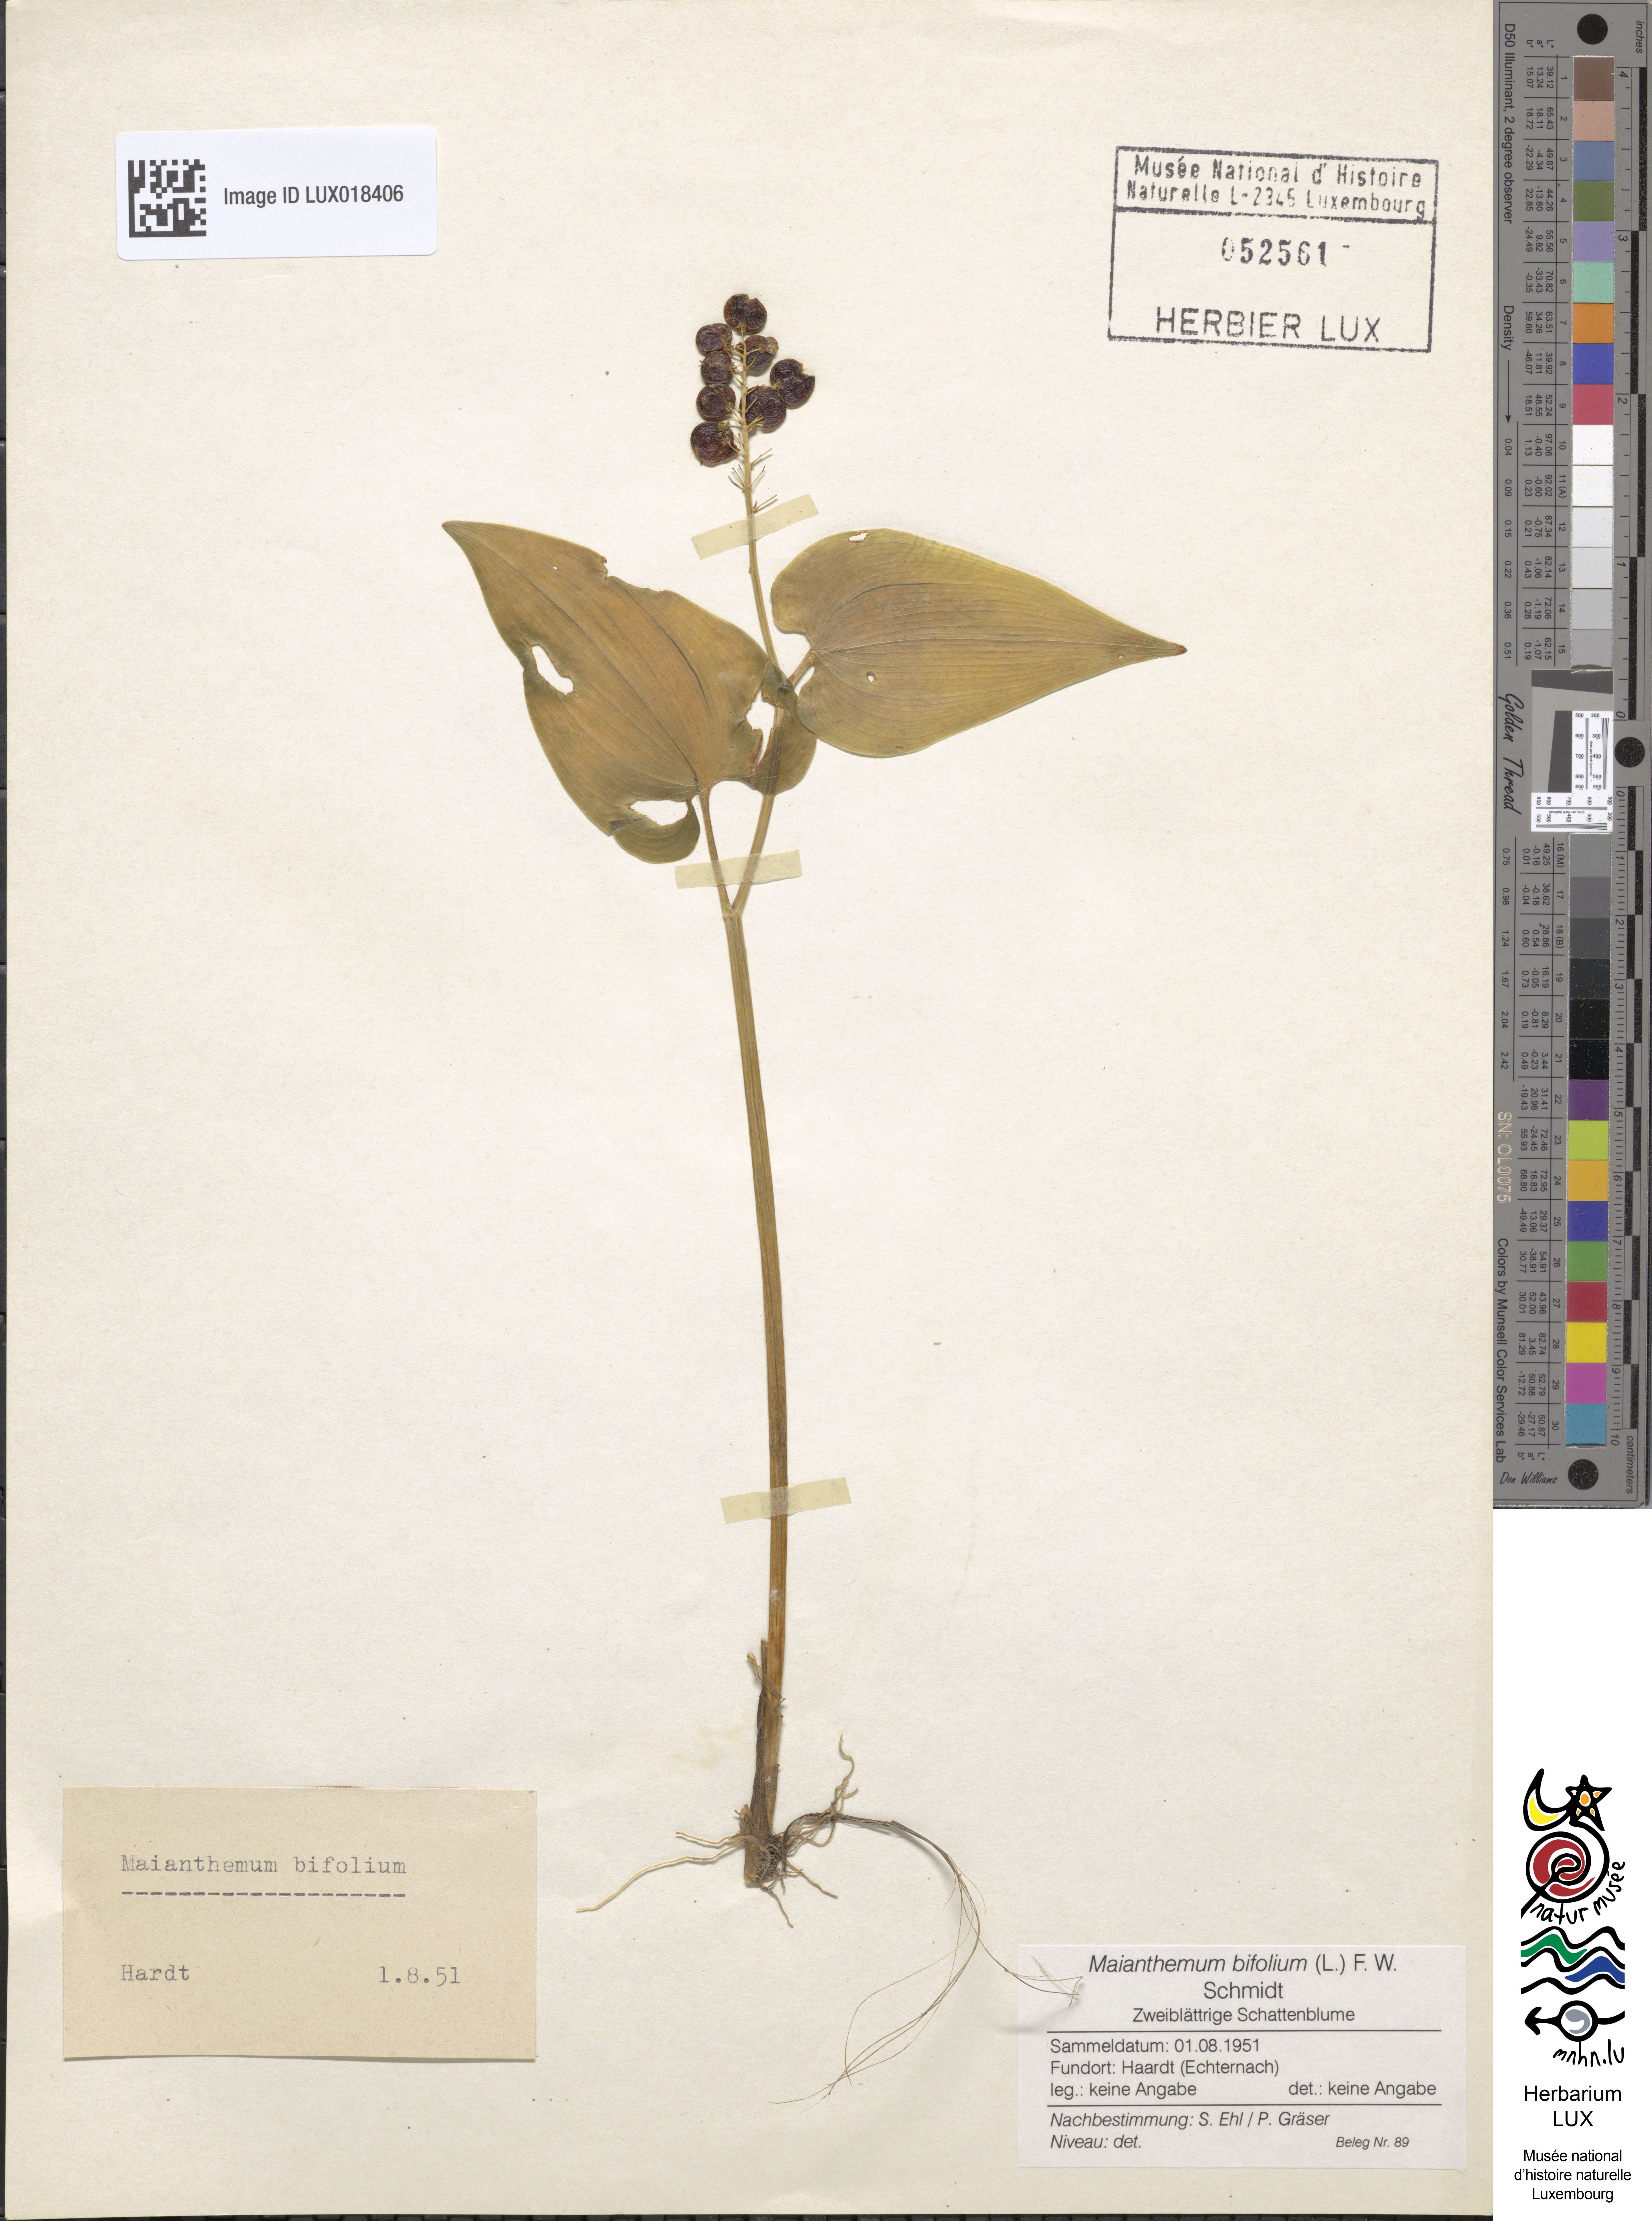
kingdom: Plantae
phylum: Tracheophyta
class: Liliopsida
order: Asparagales
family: Asparagaceae
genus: Maianthemum
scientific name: Maianthemum bifolium
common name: May lily
